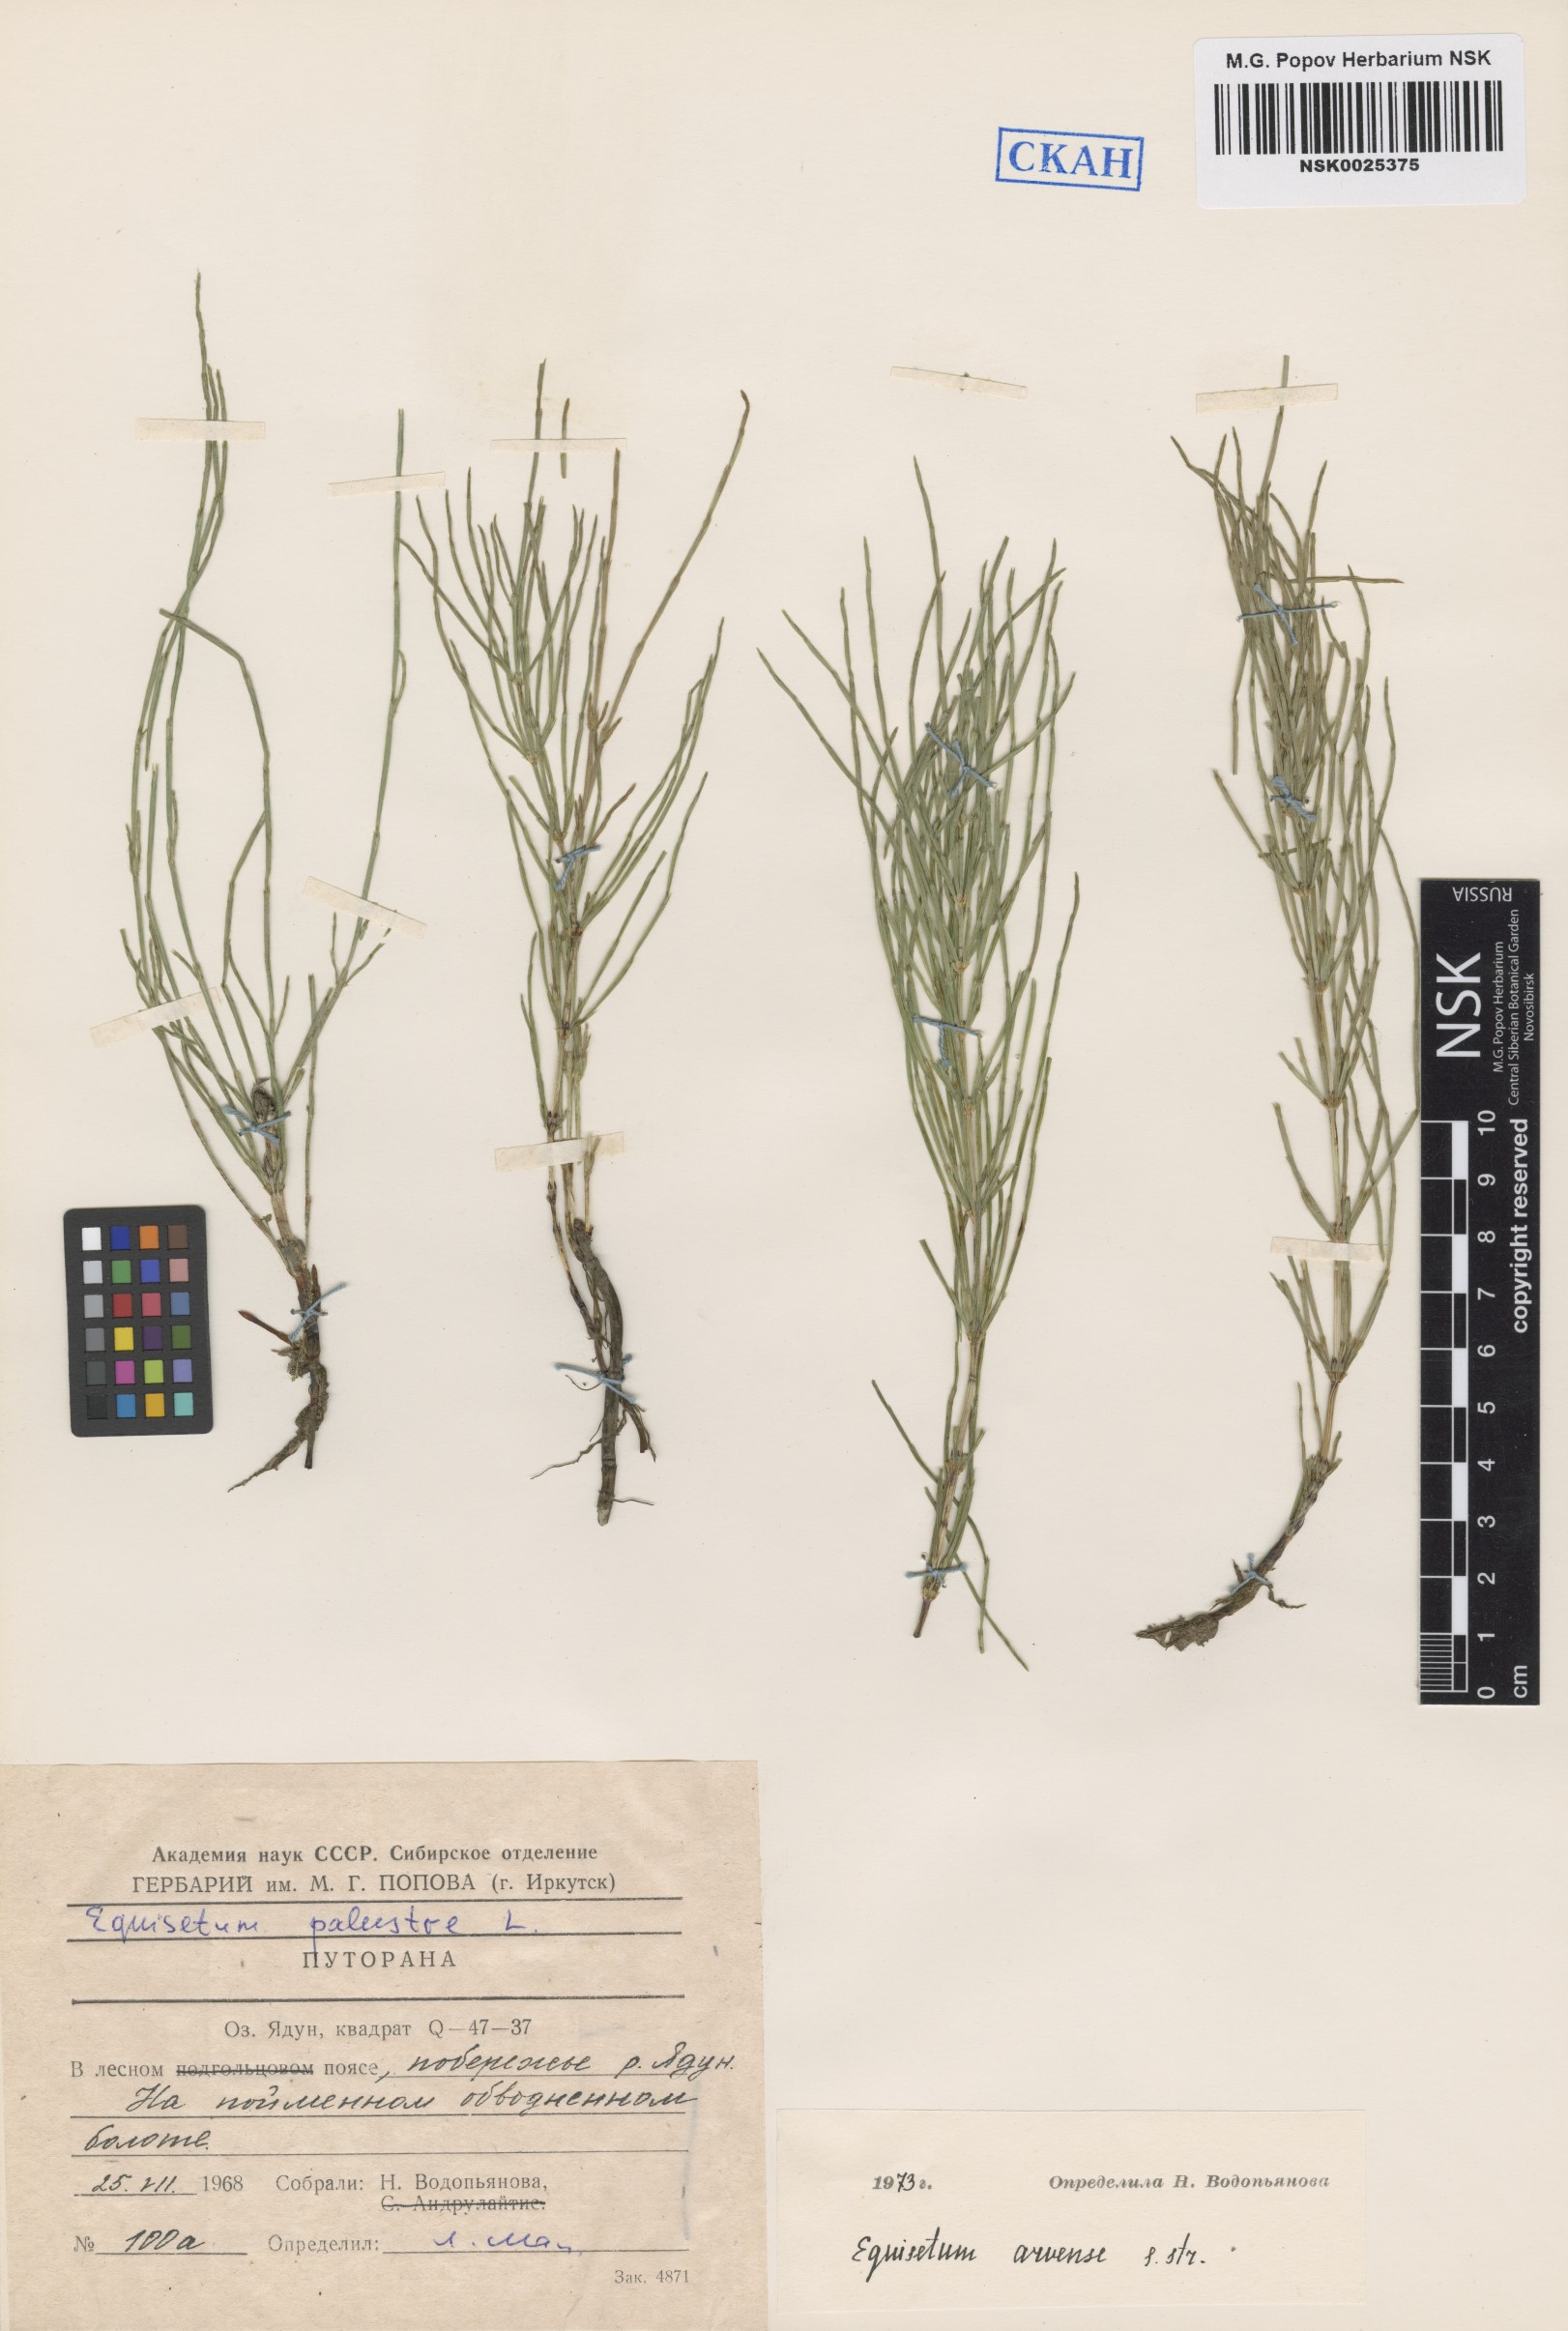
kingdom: Plantae
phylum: Tracheophyta
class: Polypodiopsida
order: Equisetales
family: Equisetaceae
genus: Equisetum
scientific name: Equisetum arvense
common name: Field horsetail
